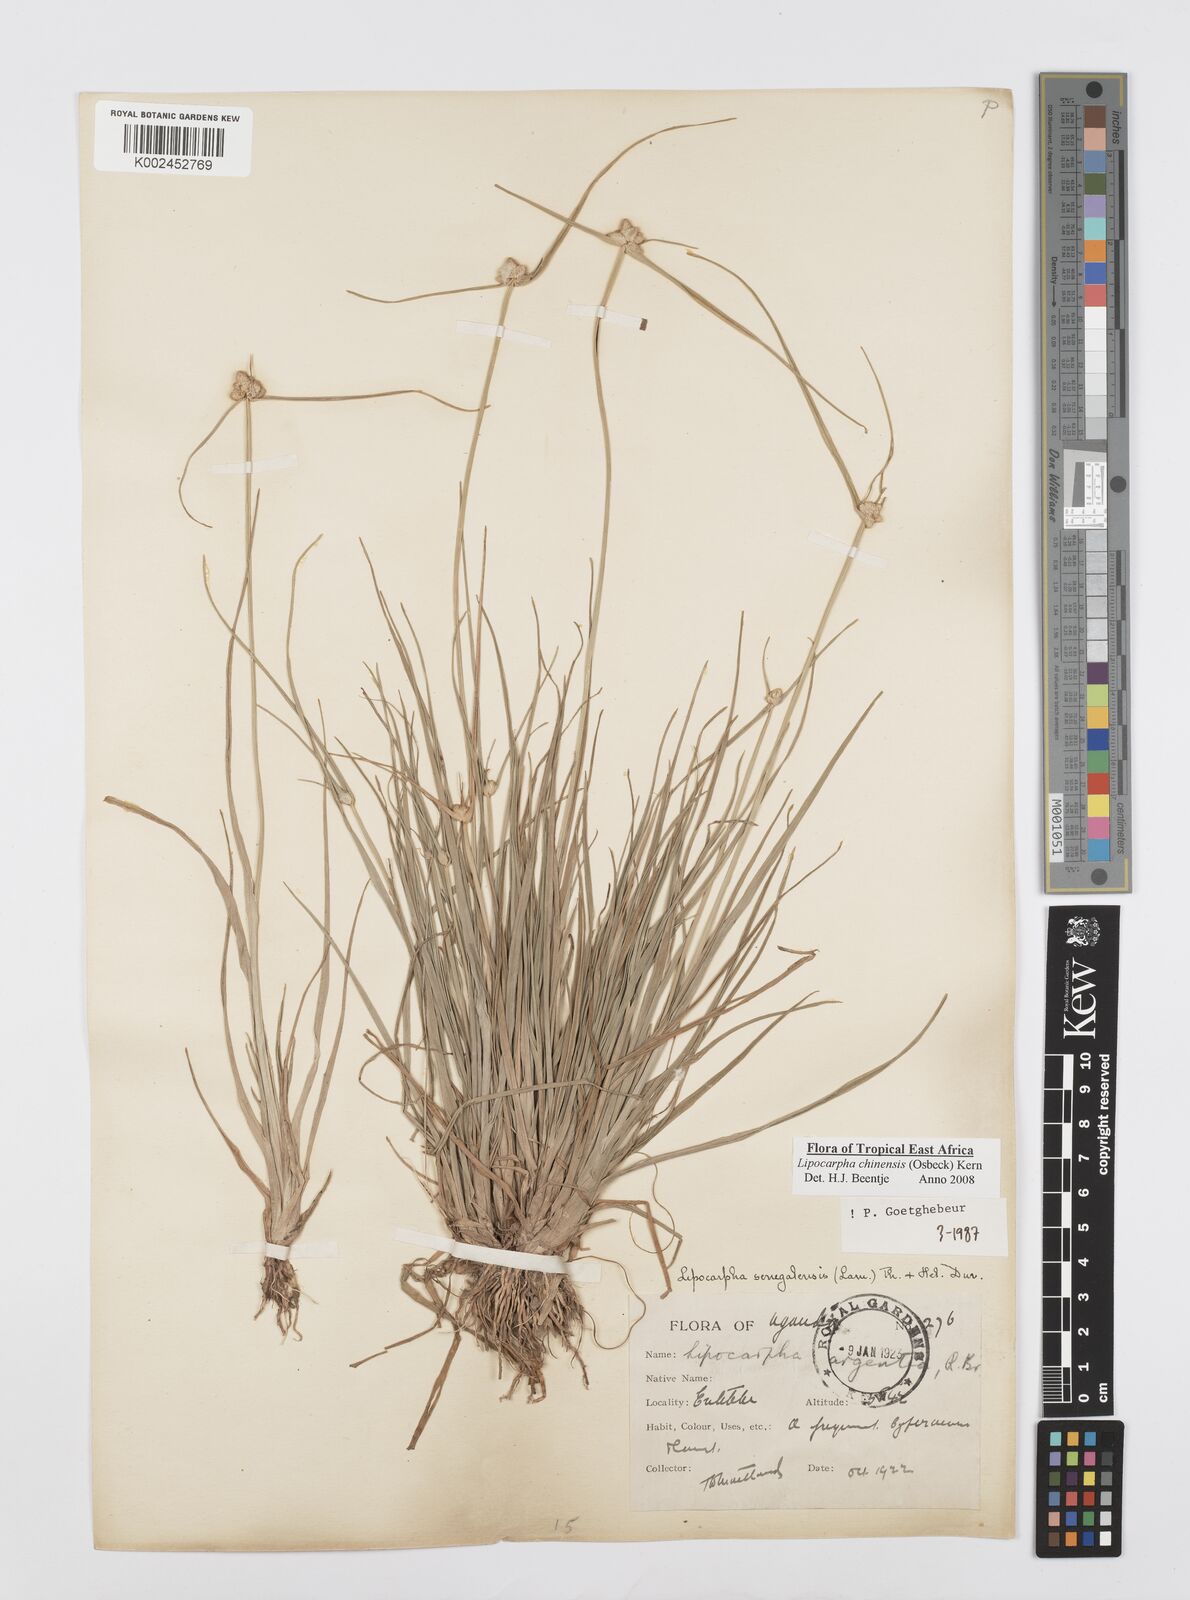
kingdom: Plantae
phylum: Tracheophyta
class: Liliopsida
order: Poales
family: Cyperaceae
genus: Cyperus
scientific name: Cyperus albescens
